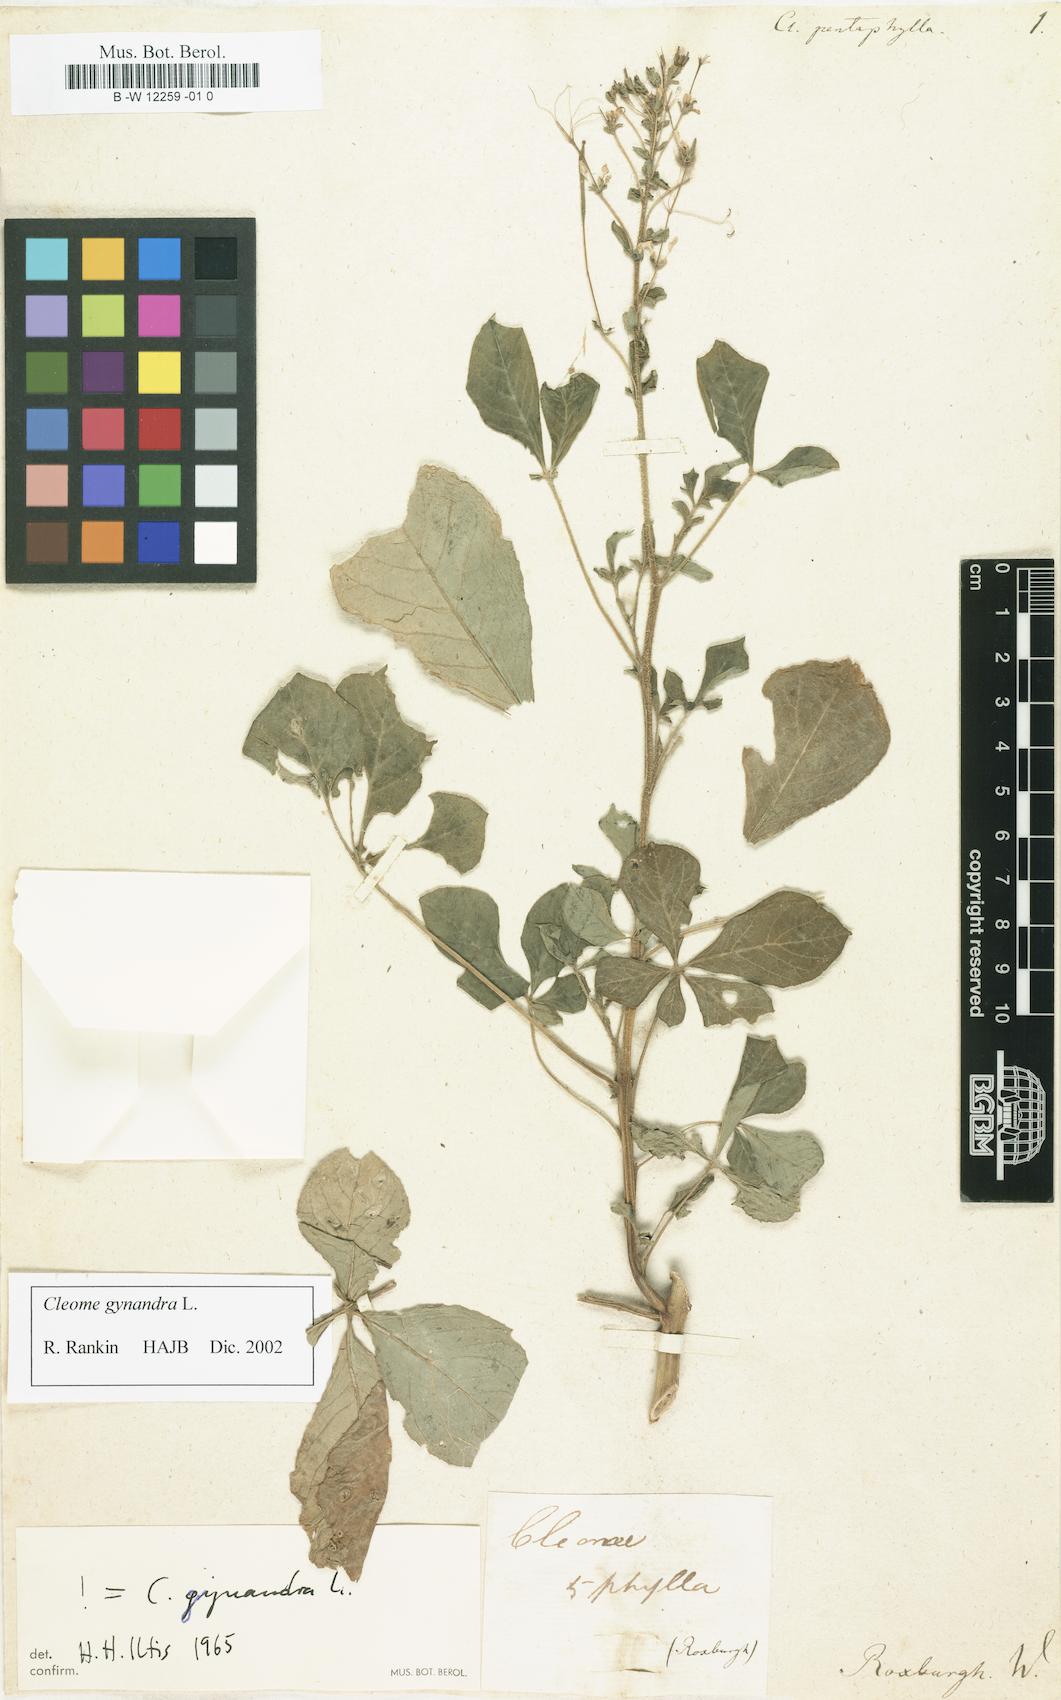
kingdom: Plantae
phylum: Tracheophyta
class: Magnoliopsida
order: Brassicales
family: Cleomaceae
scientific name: Cleomaceae
